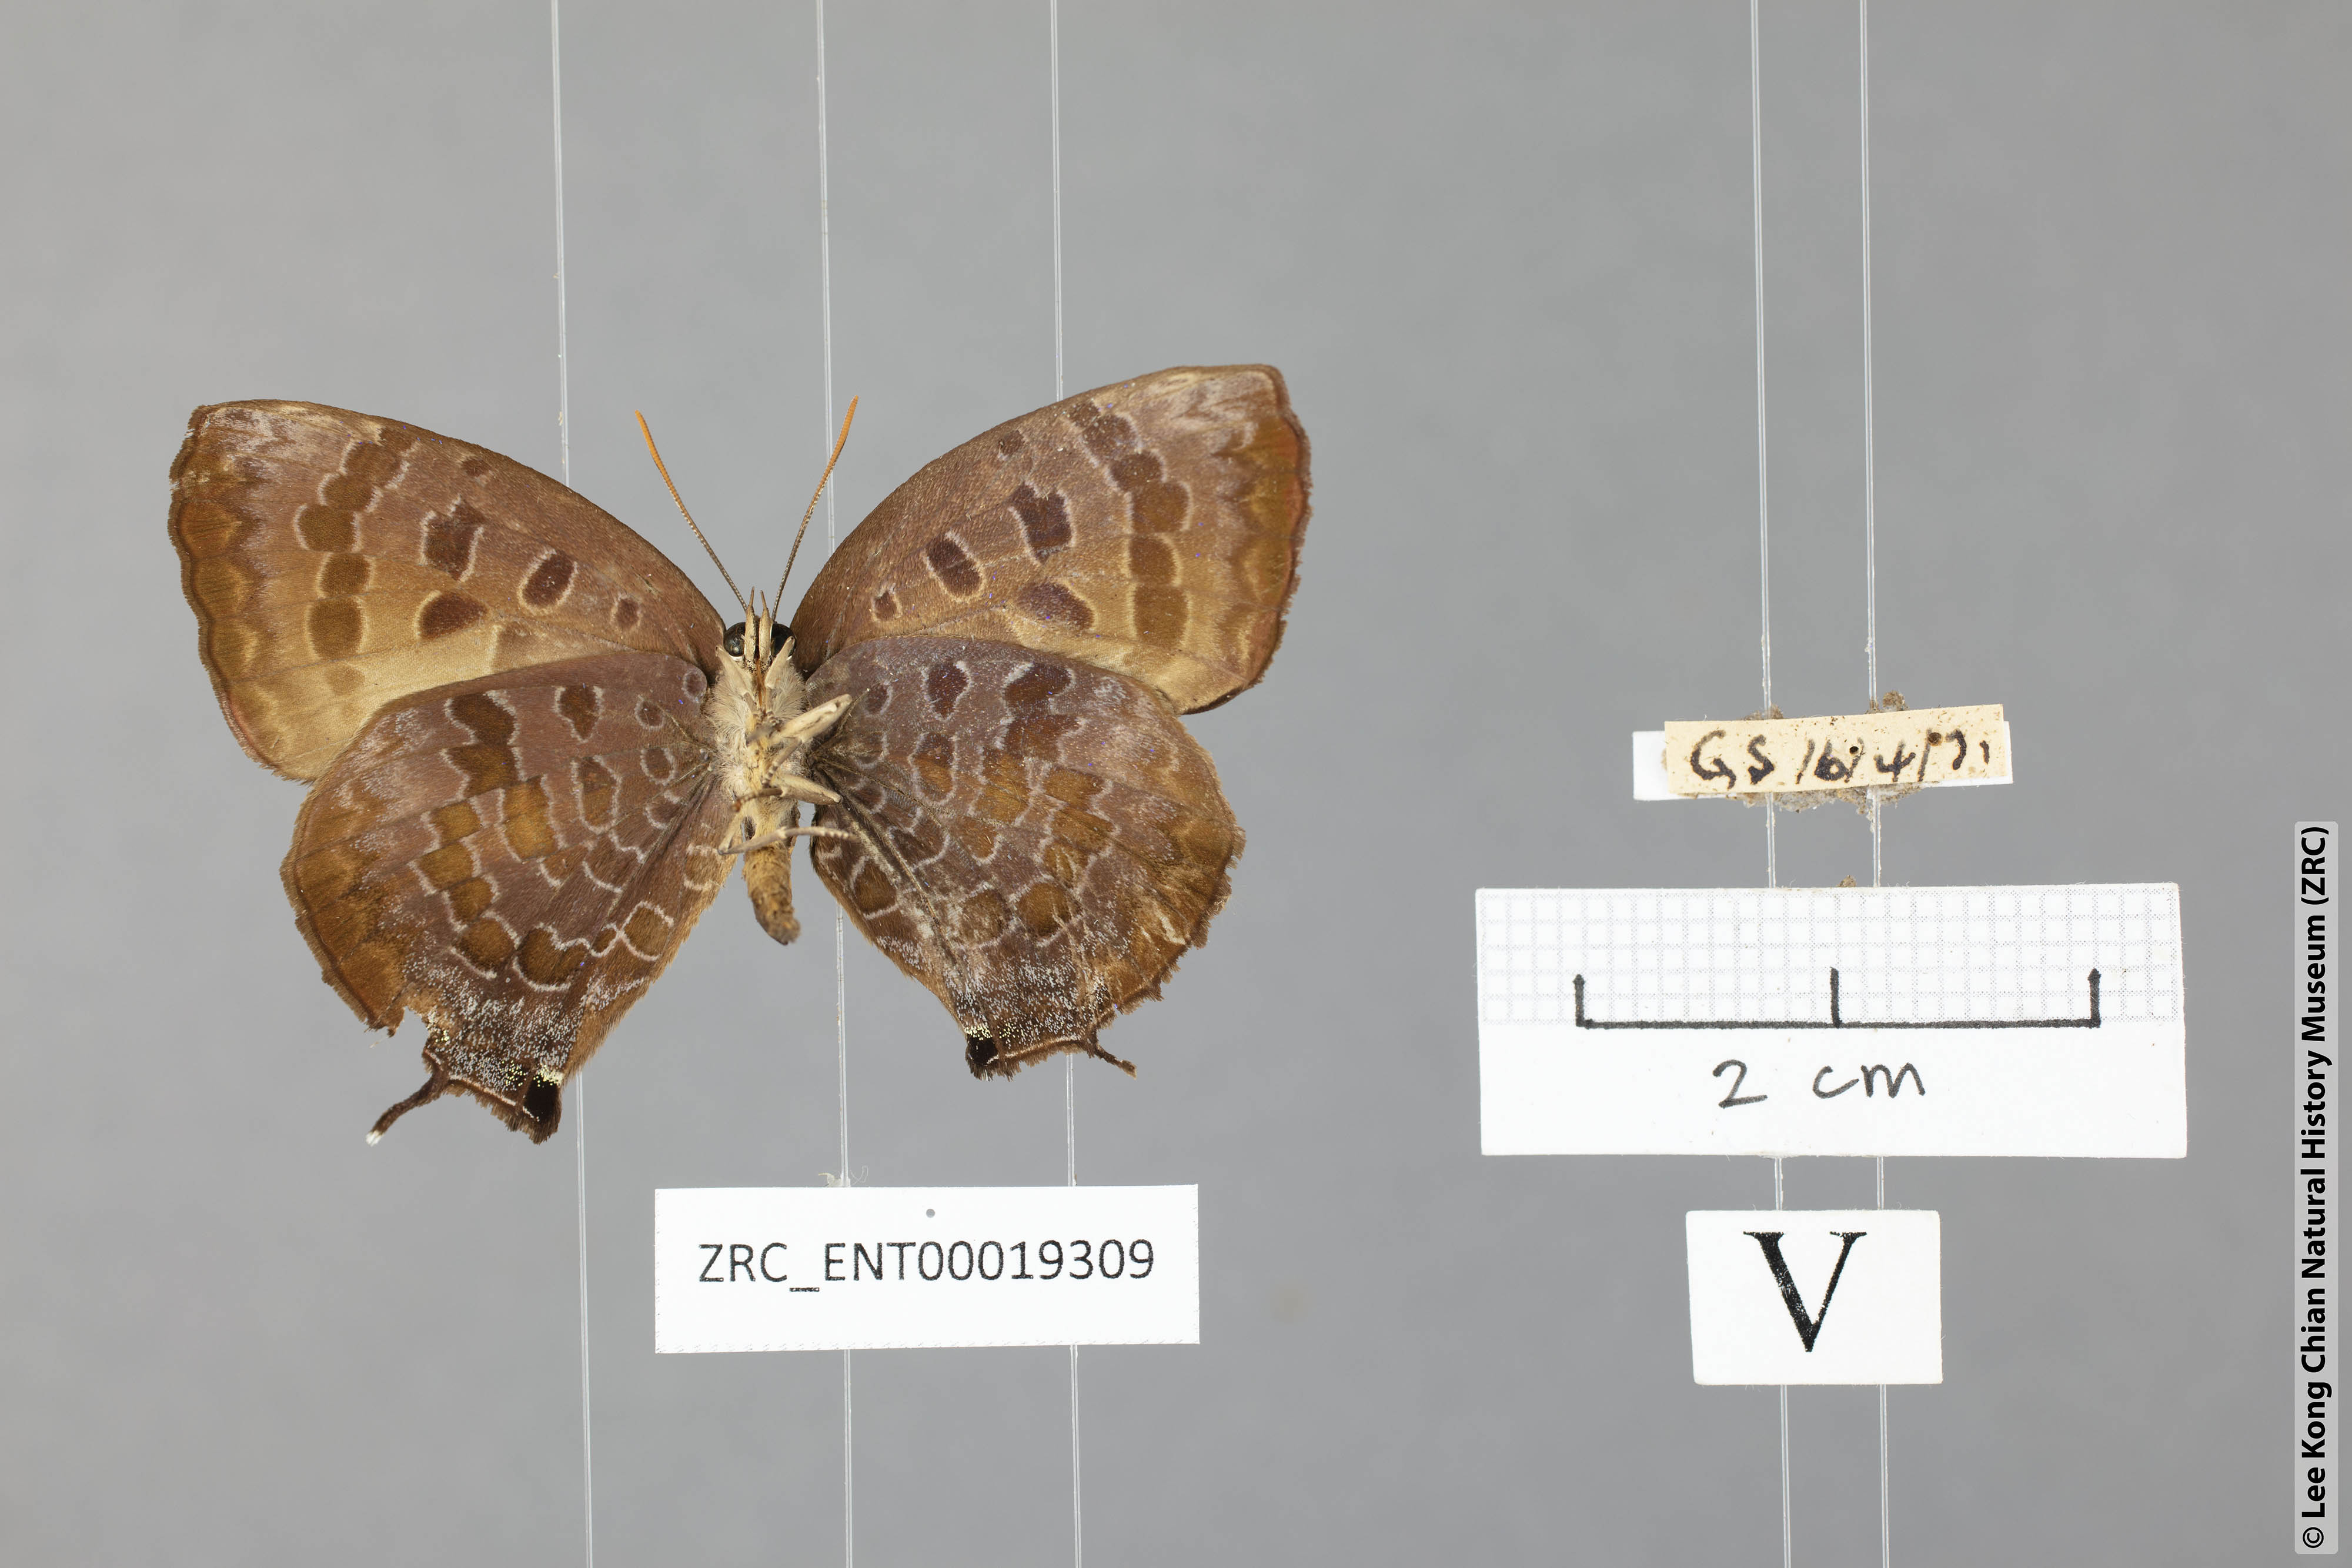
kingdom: Animalia
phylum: Arthropoda
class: Insecta
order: Lepidoptera
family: Lycaenidae
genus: Arhopala
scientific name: Arhopala bazalus
